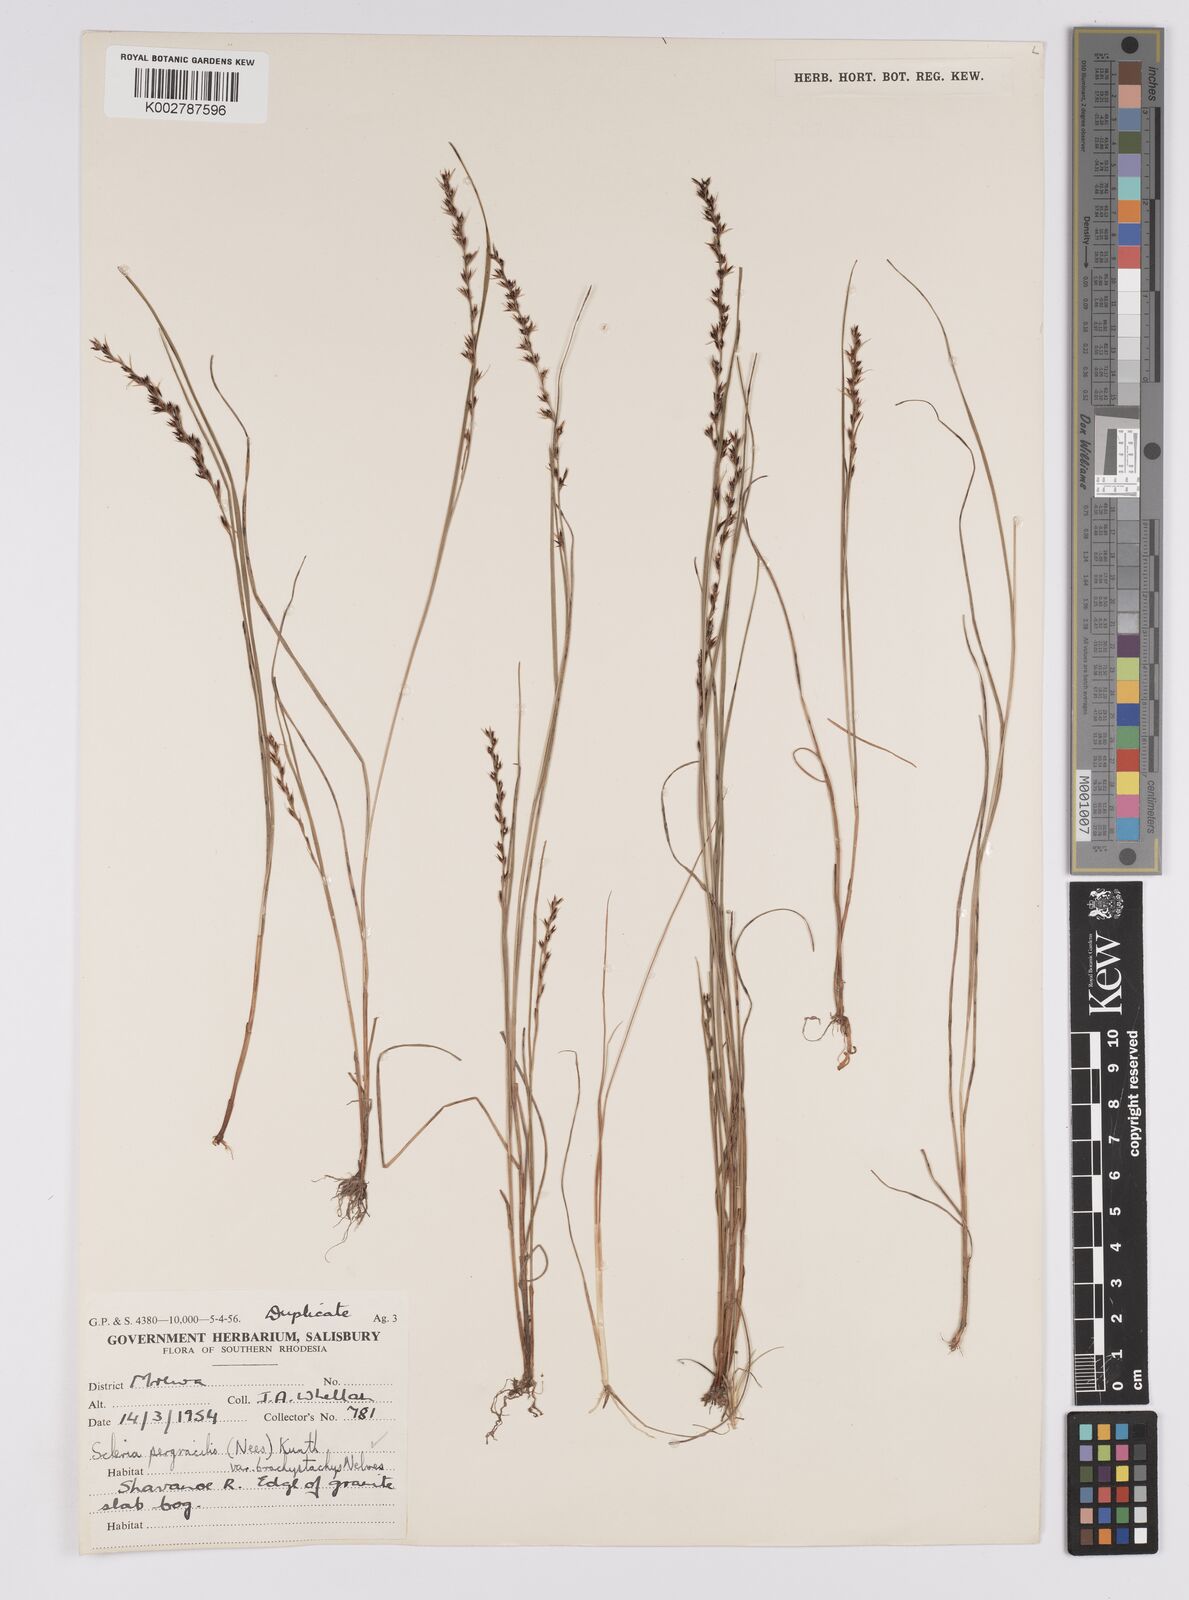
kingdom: Plantae
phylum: Tracheophyta
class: Liliopsida
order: Poales
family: Cyperaceae
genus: Scleria
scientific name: Scleria pergracilis
